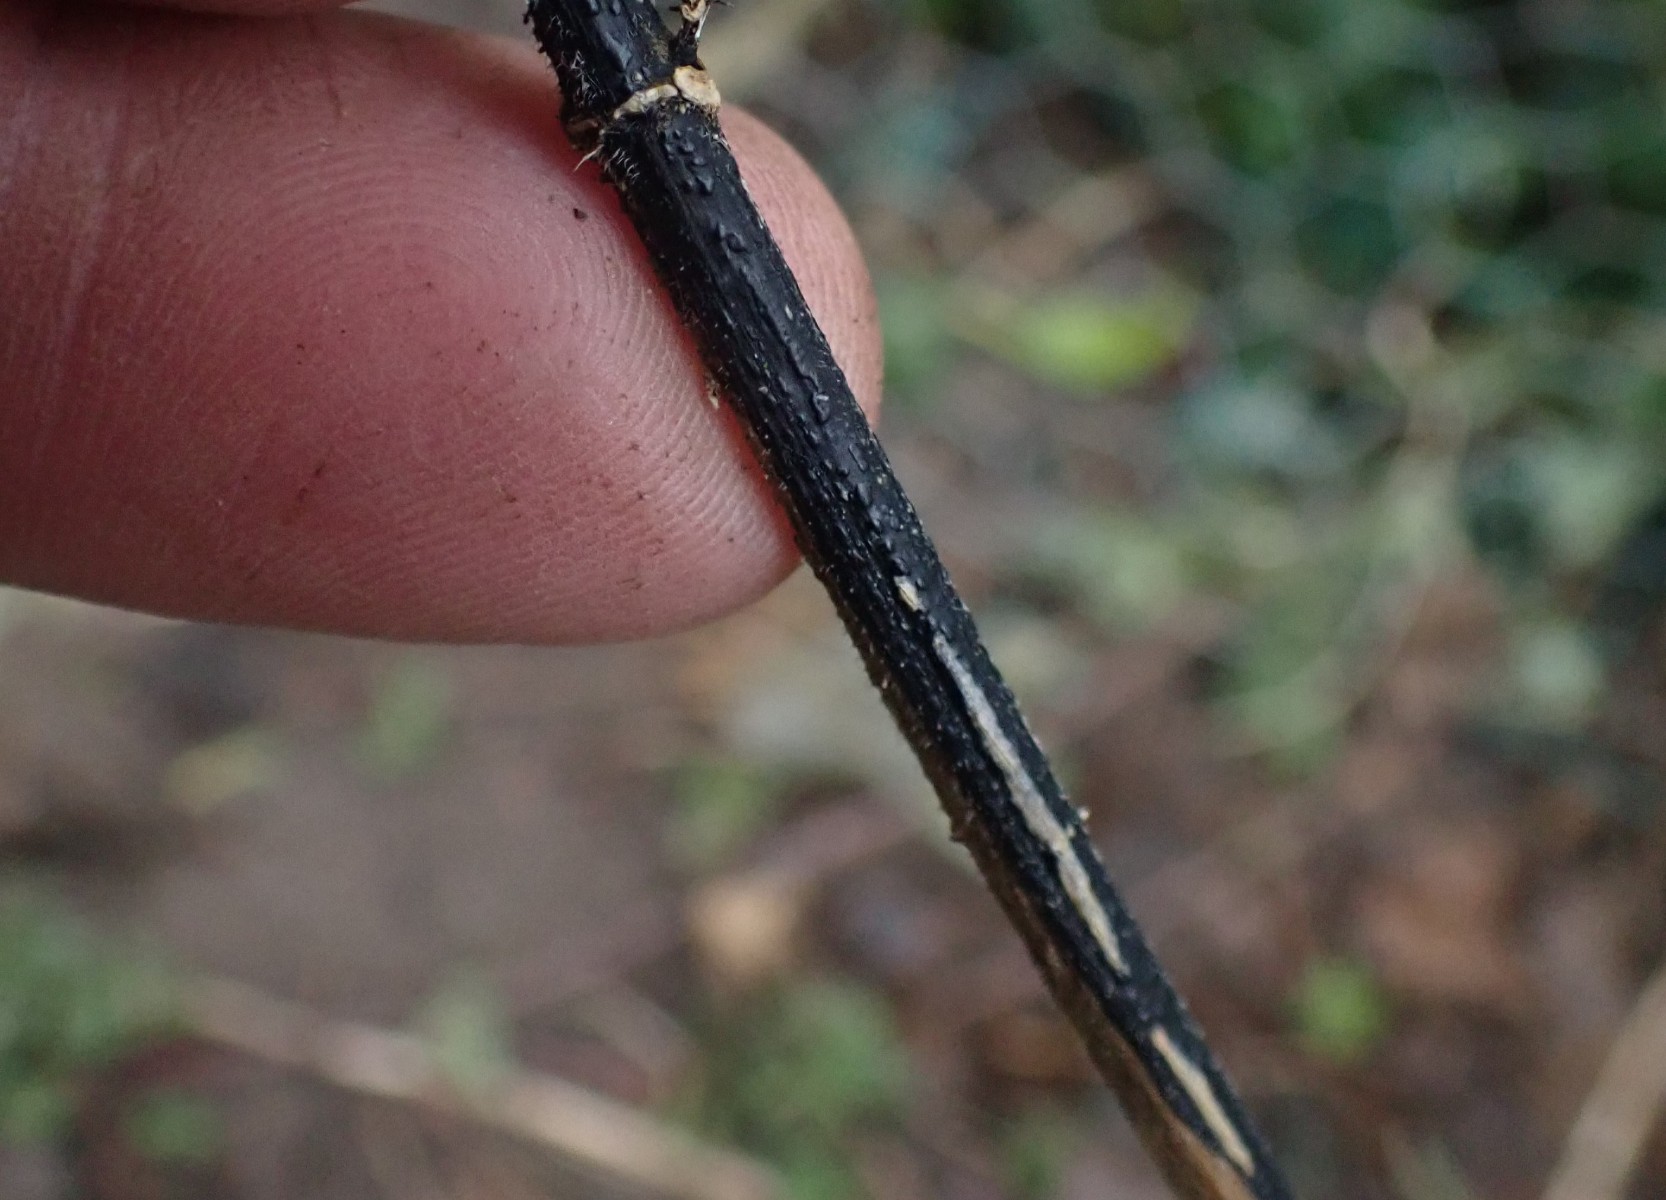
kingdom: Fungi
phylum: Ascomycota
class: Sordariomycetes
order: Diaporthales
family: Diaporthaceae
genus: Diaporthopsis
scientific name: Diaporthopsis urticae
